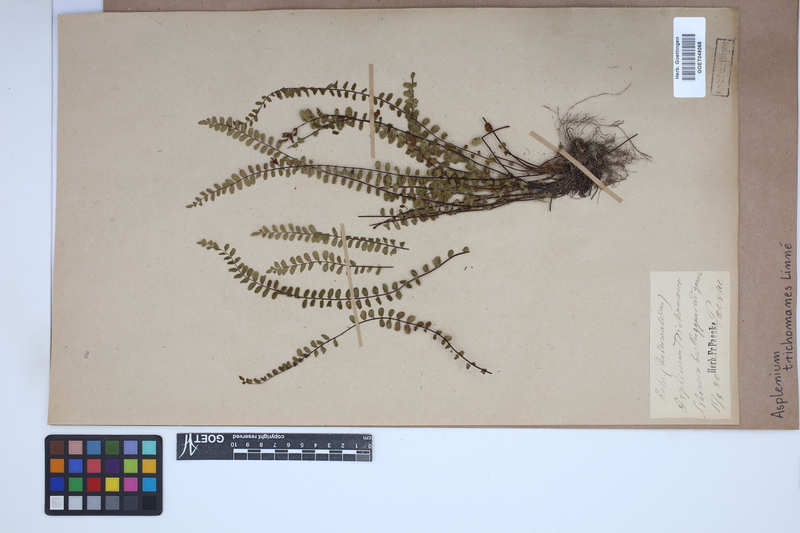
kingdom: Plantae
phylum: Tracheophyta
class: Polypodiopsida
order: Polypodiales
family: Aspleniaceae
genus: Asplenium
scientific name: Asplenium trichomanes
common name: Maidenhair spleenwort
